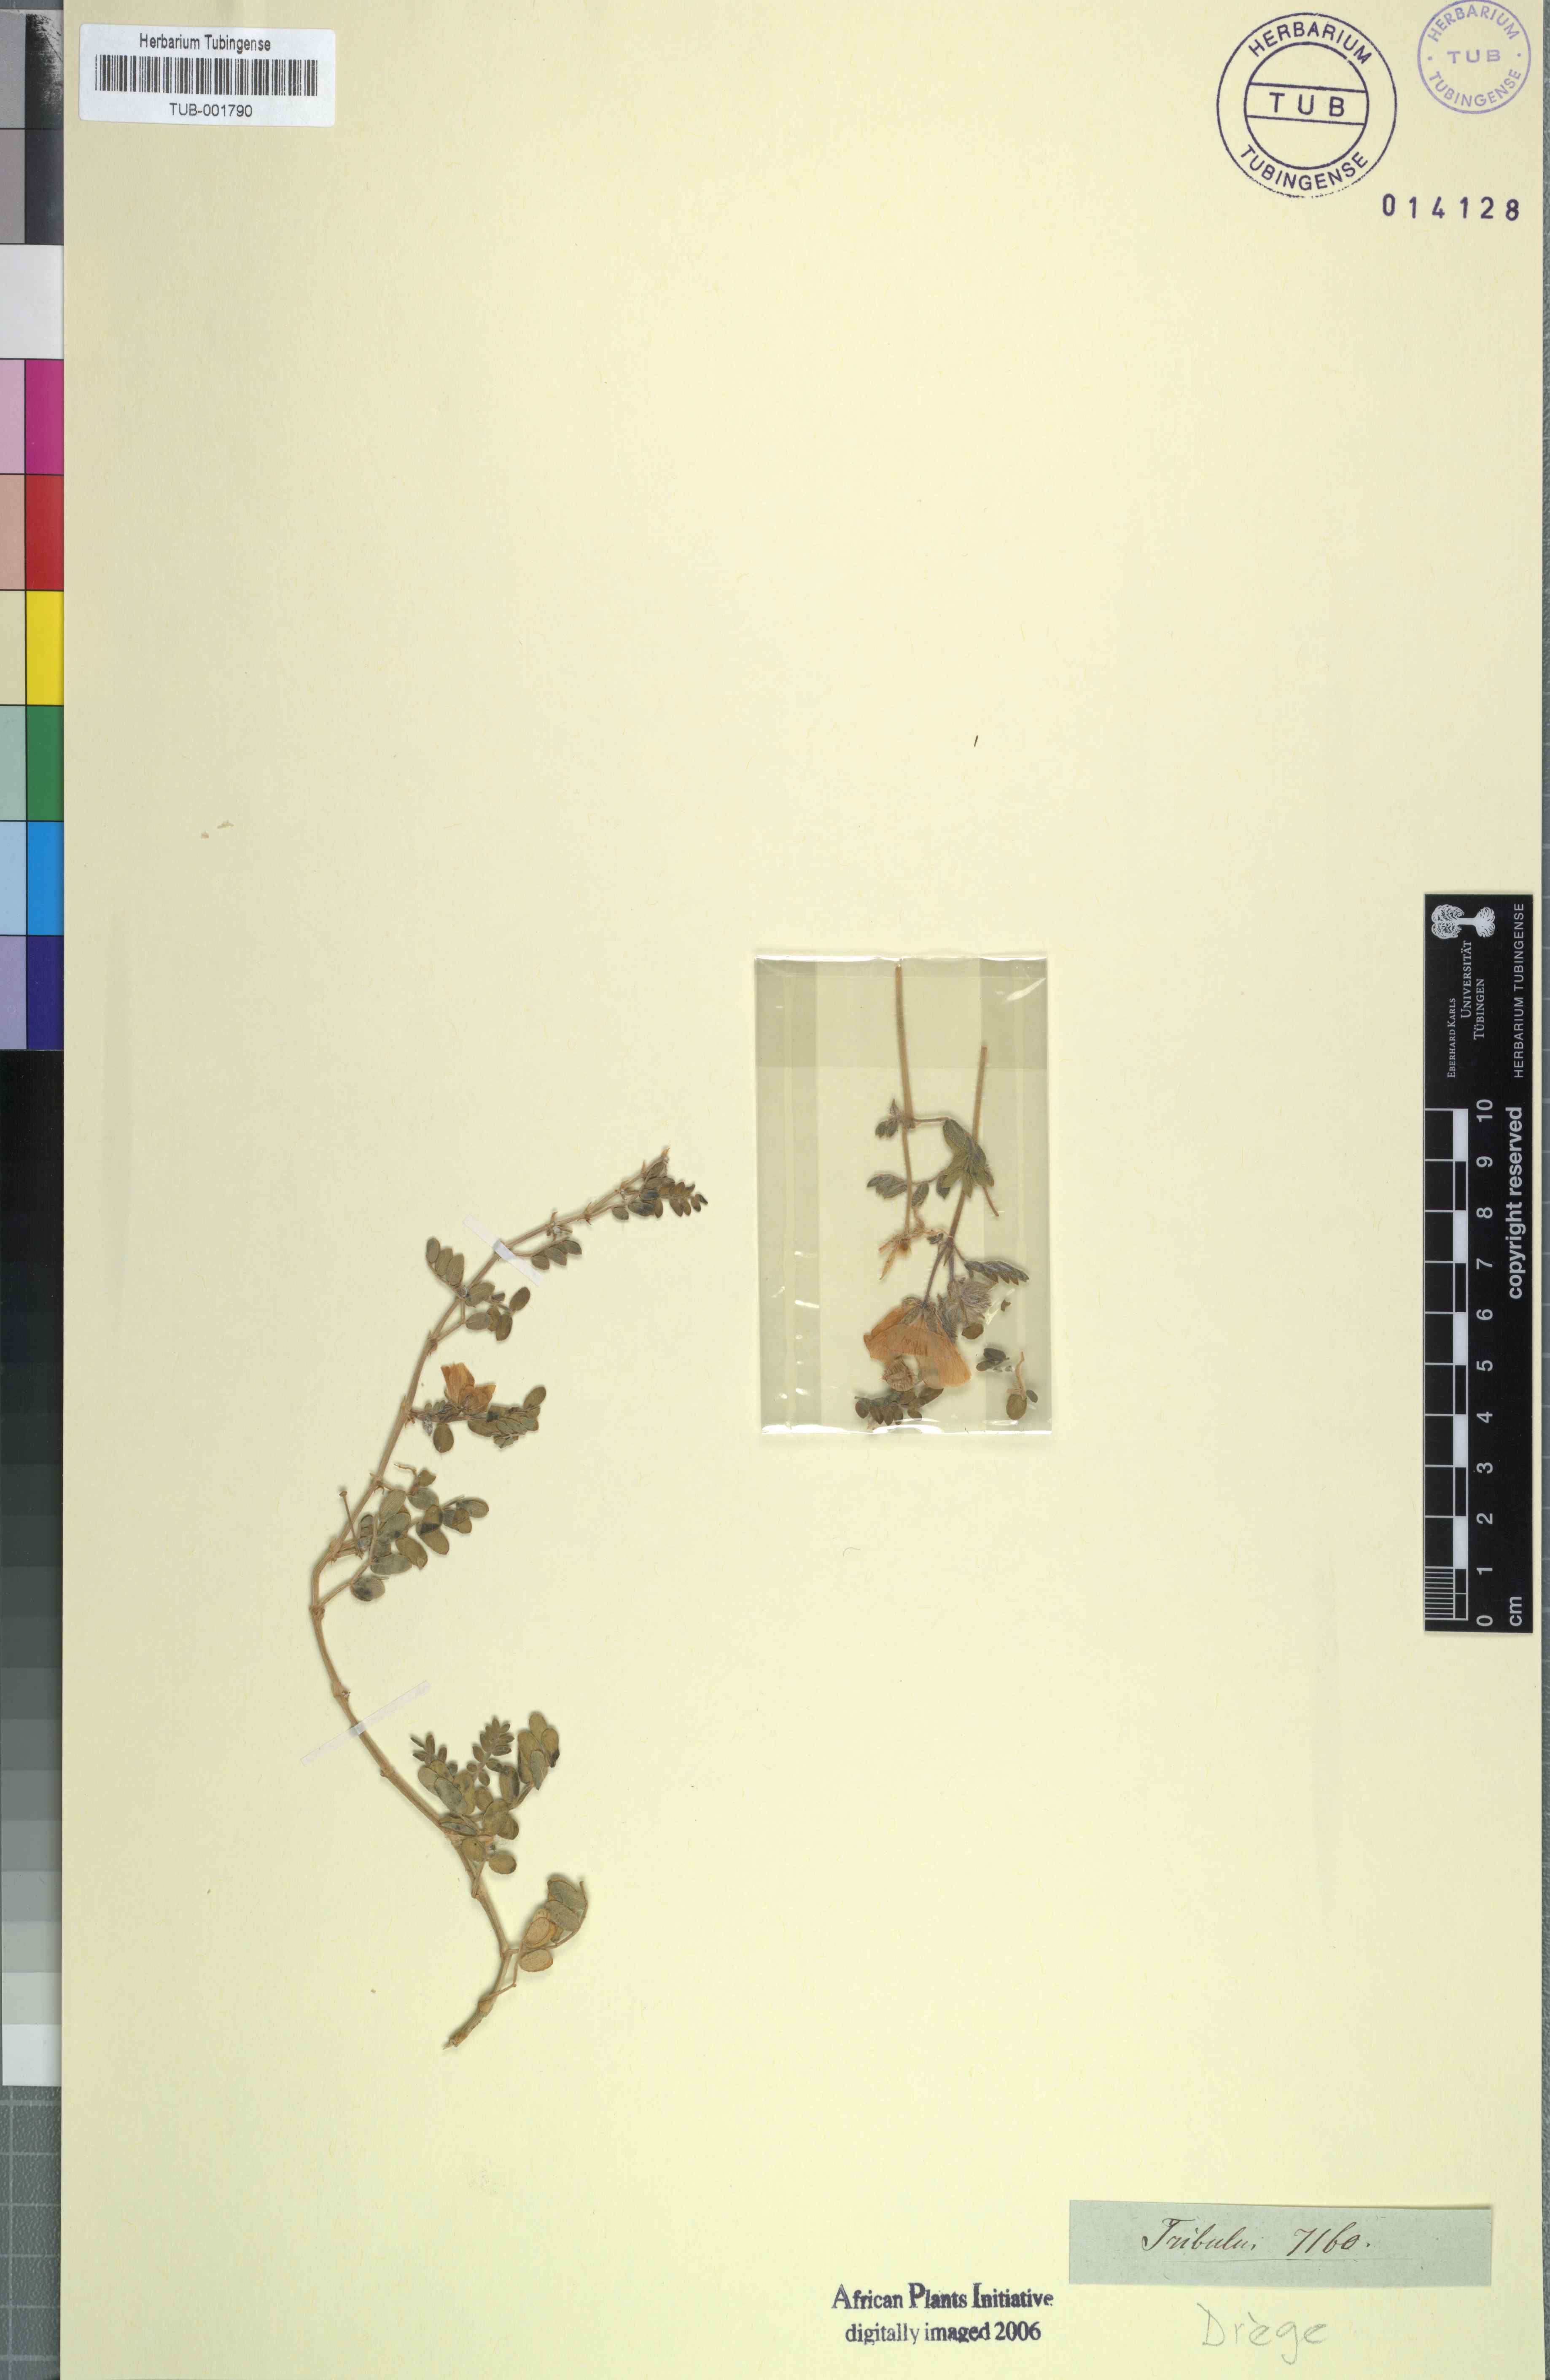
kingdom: Plantae
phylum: Tracheophyta
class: Magnoliopsida
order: Zygophyllales
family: Zygophyllaceae
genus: Tribulus
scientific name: Tribulus
